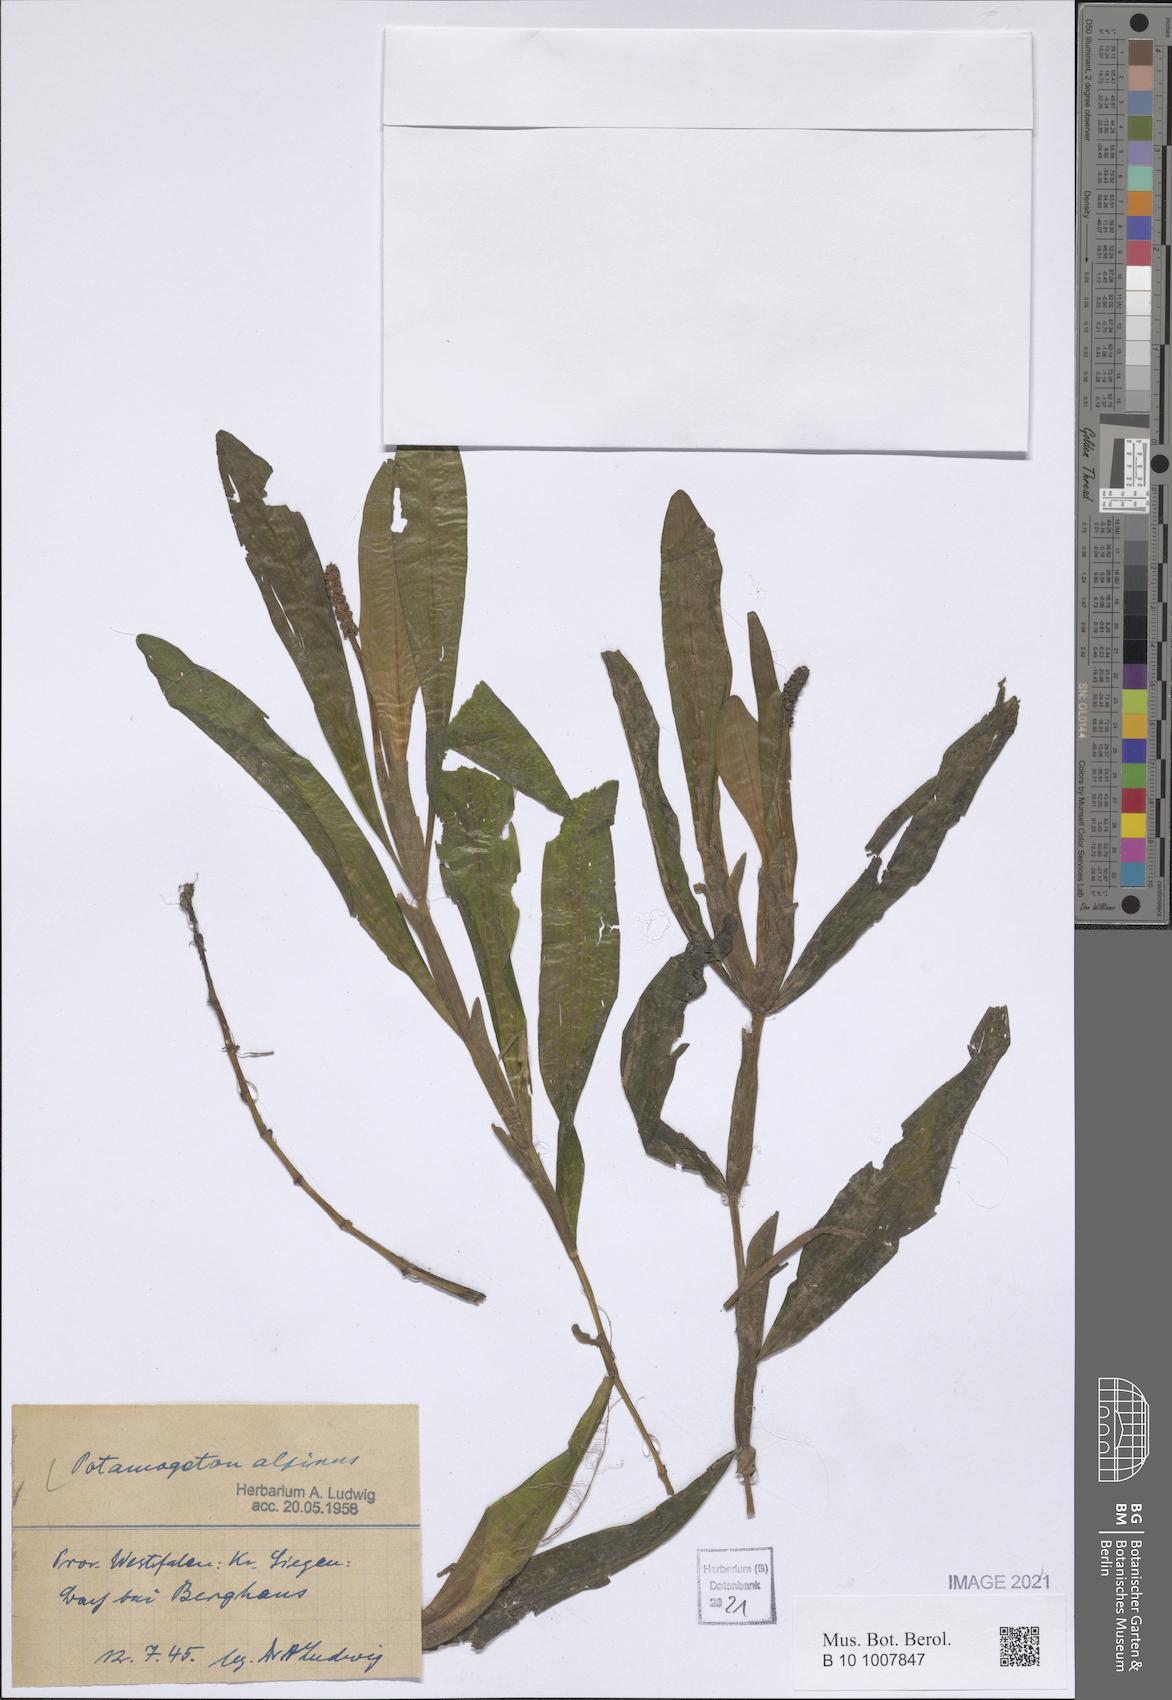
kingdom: Plantae
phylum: Tracheophyta
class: Liliopsida
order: Alismatales
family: Potamogetonaceae
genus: Potamogeton
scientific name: Potamogeton alpinus
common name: Red pondweed
